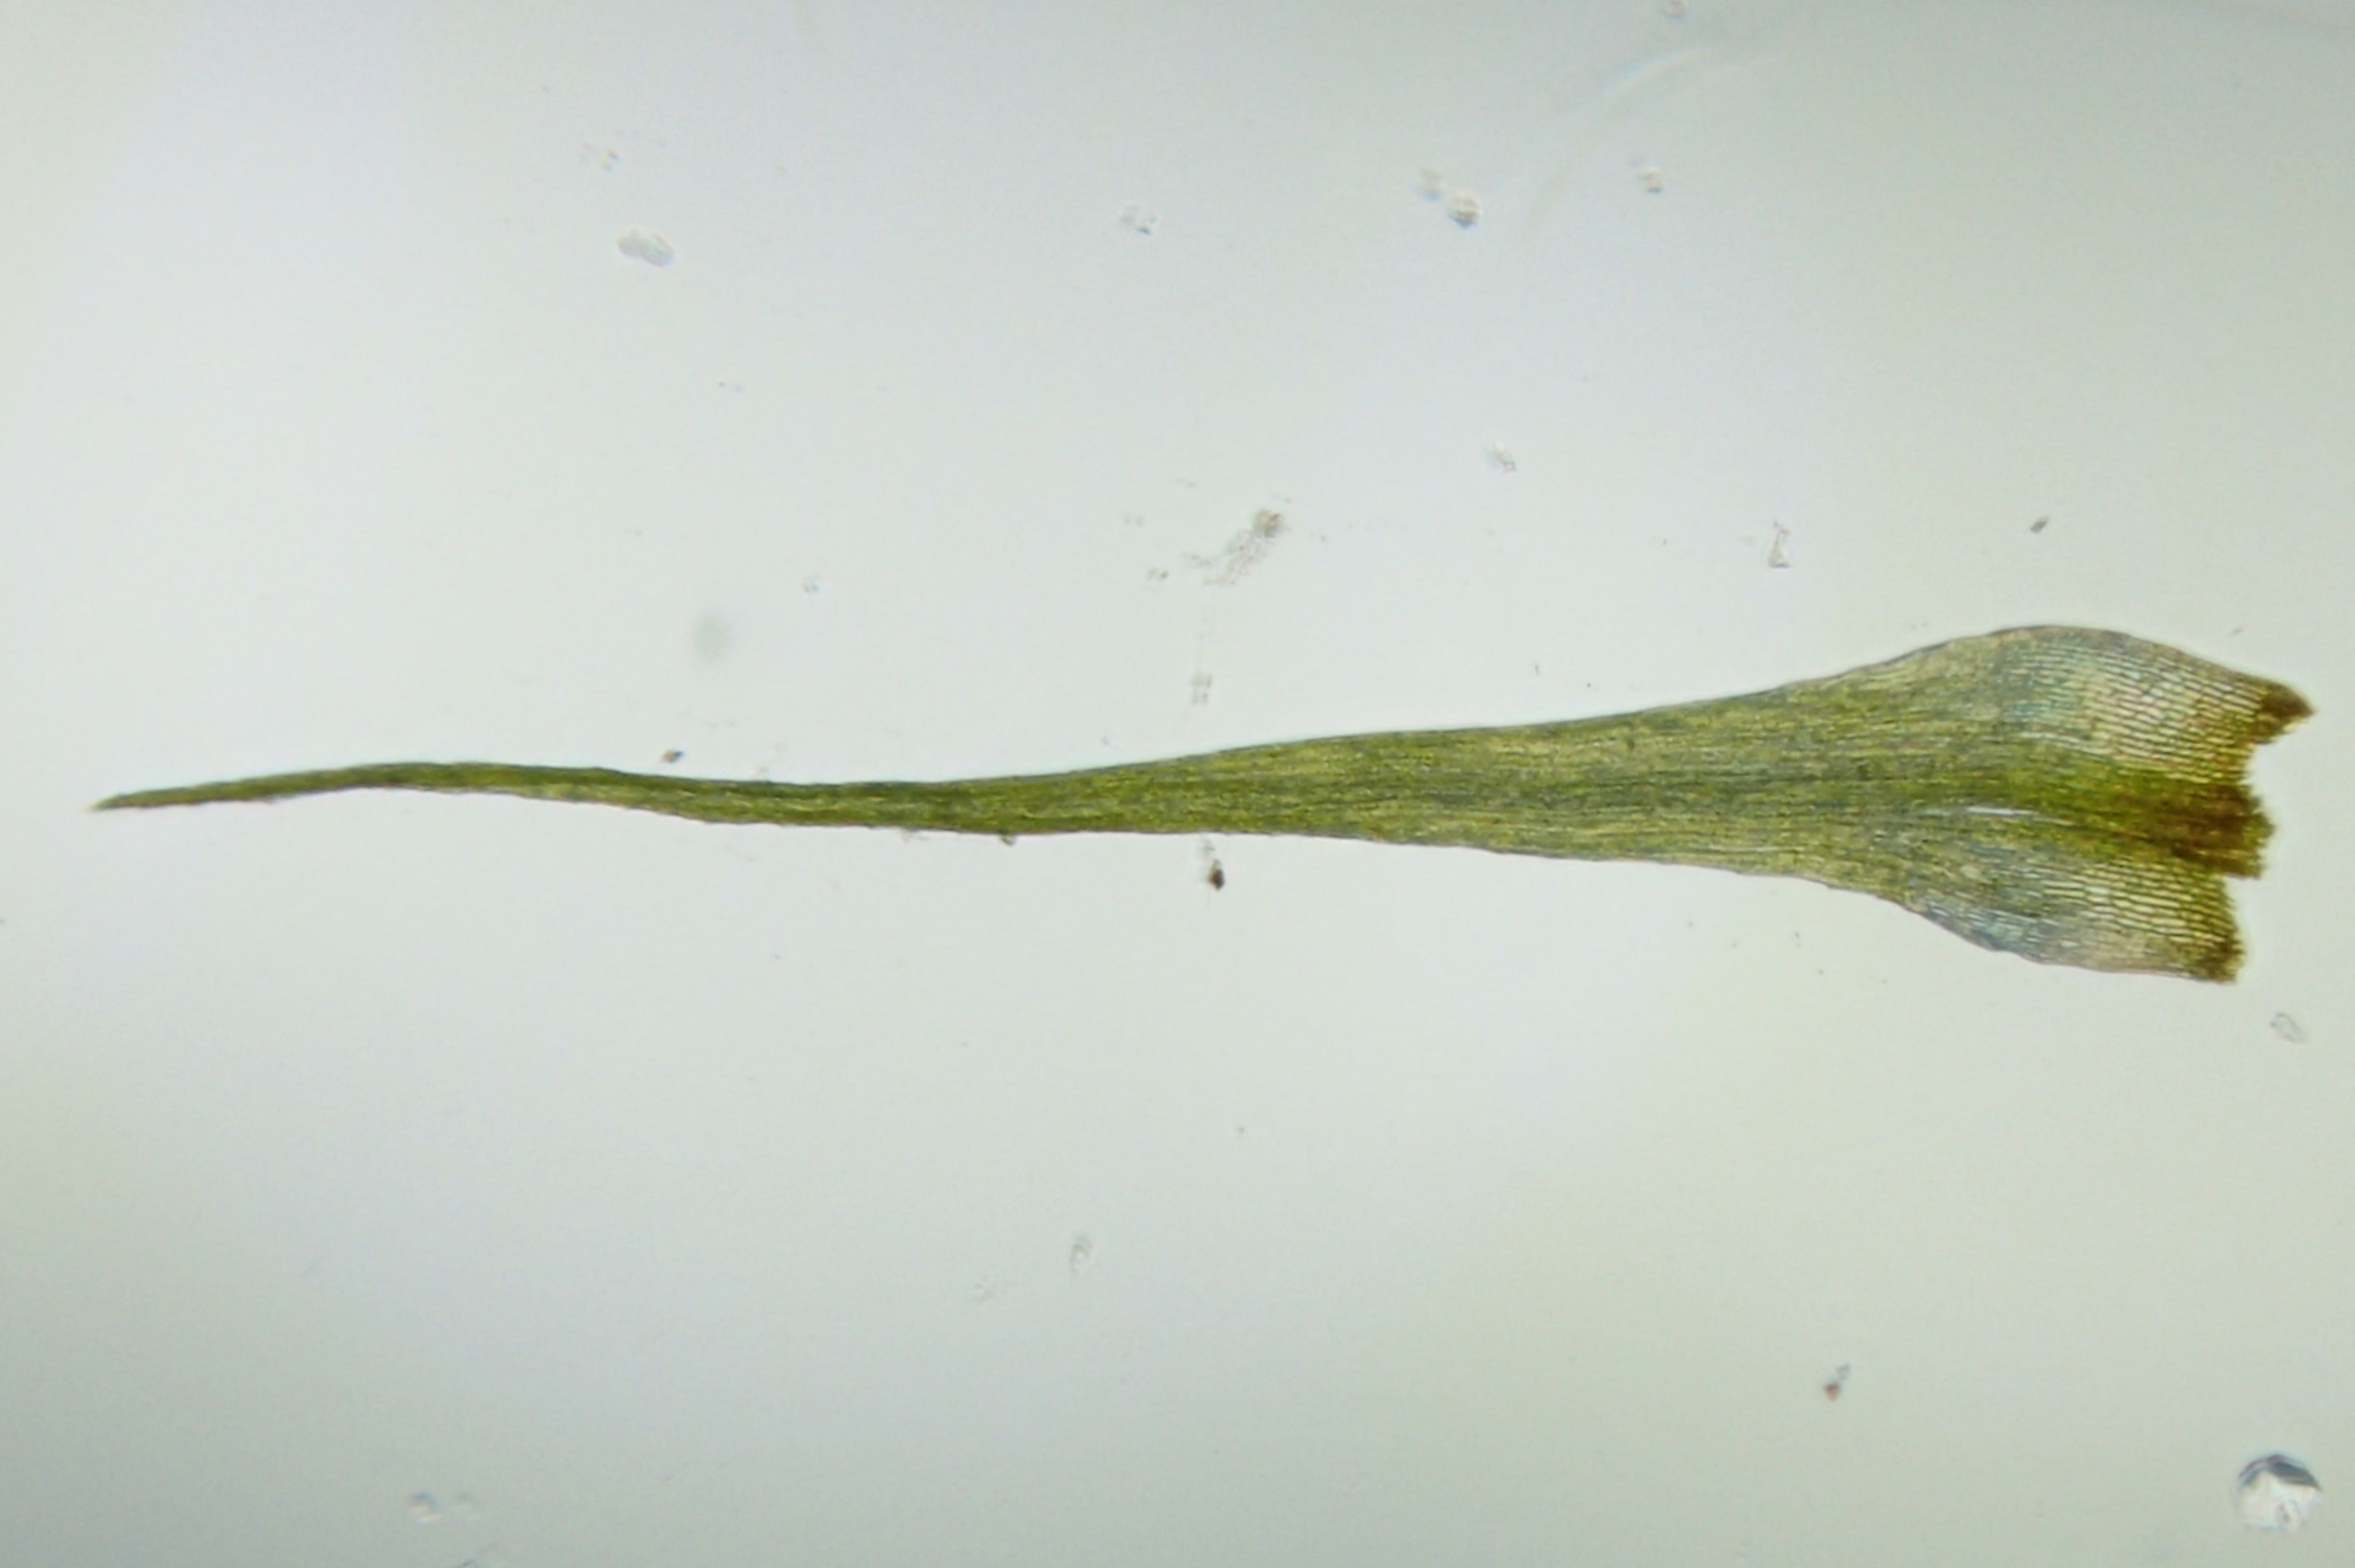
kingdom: Plantae
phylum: Bryophyta
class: Bryopsida
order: Dicranales
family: Ditrichaceae
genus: Pleuridium
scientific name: Pleuridium acuminatum
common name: Siddende sylbladsmos
